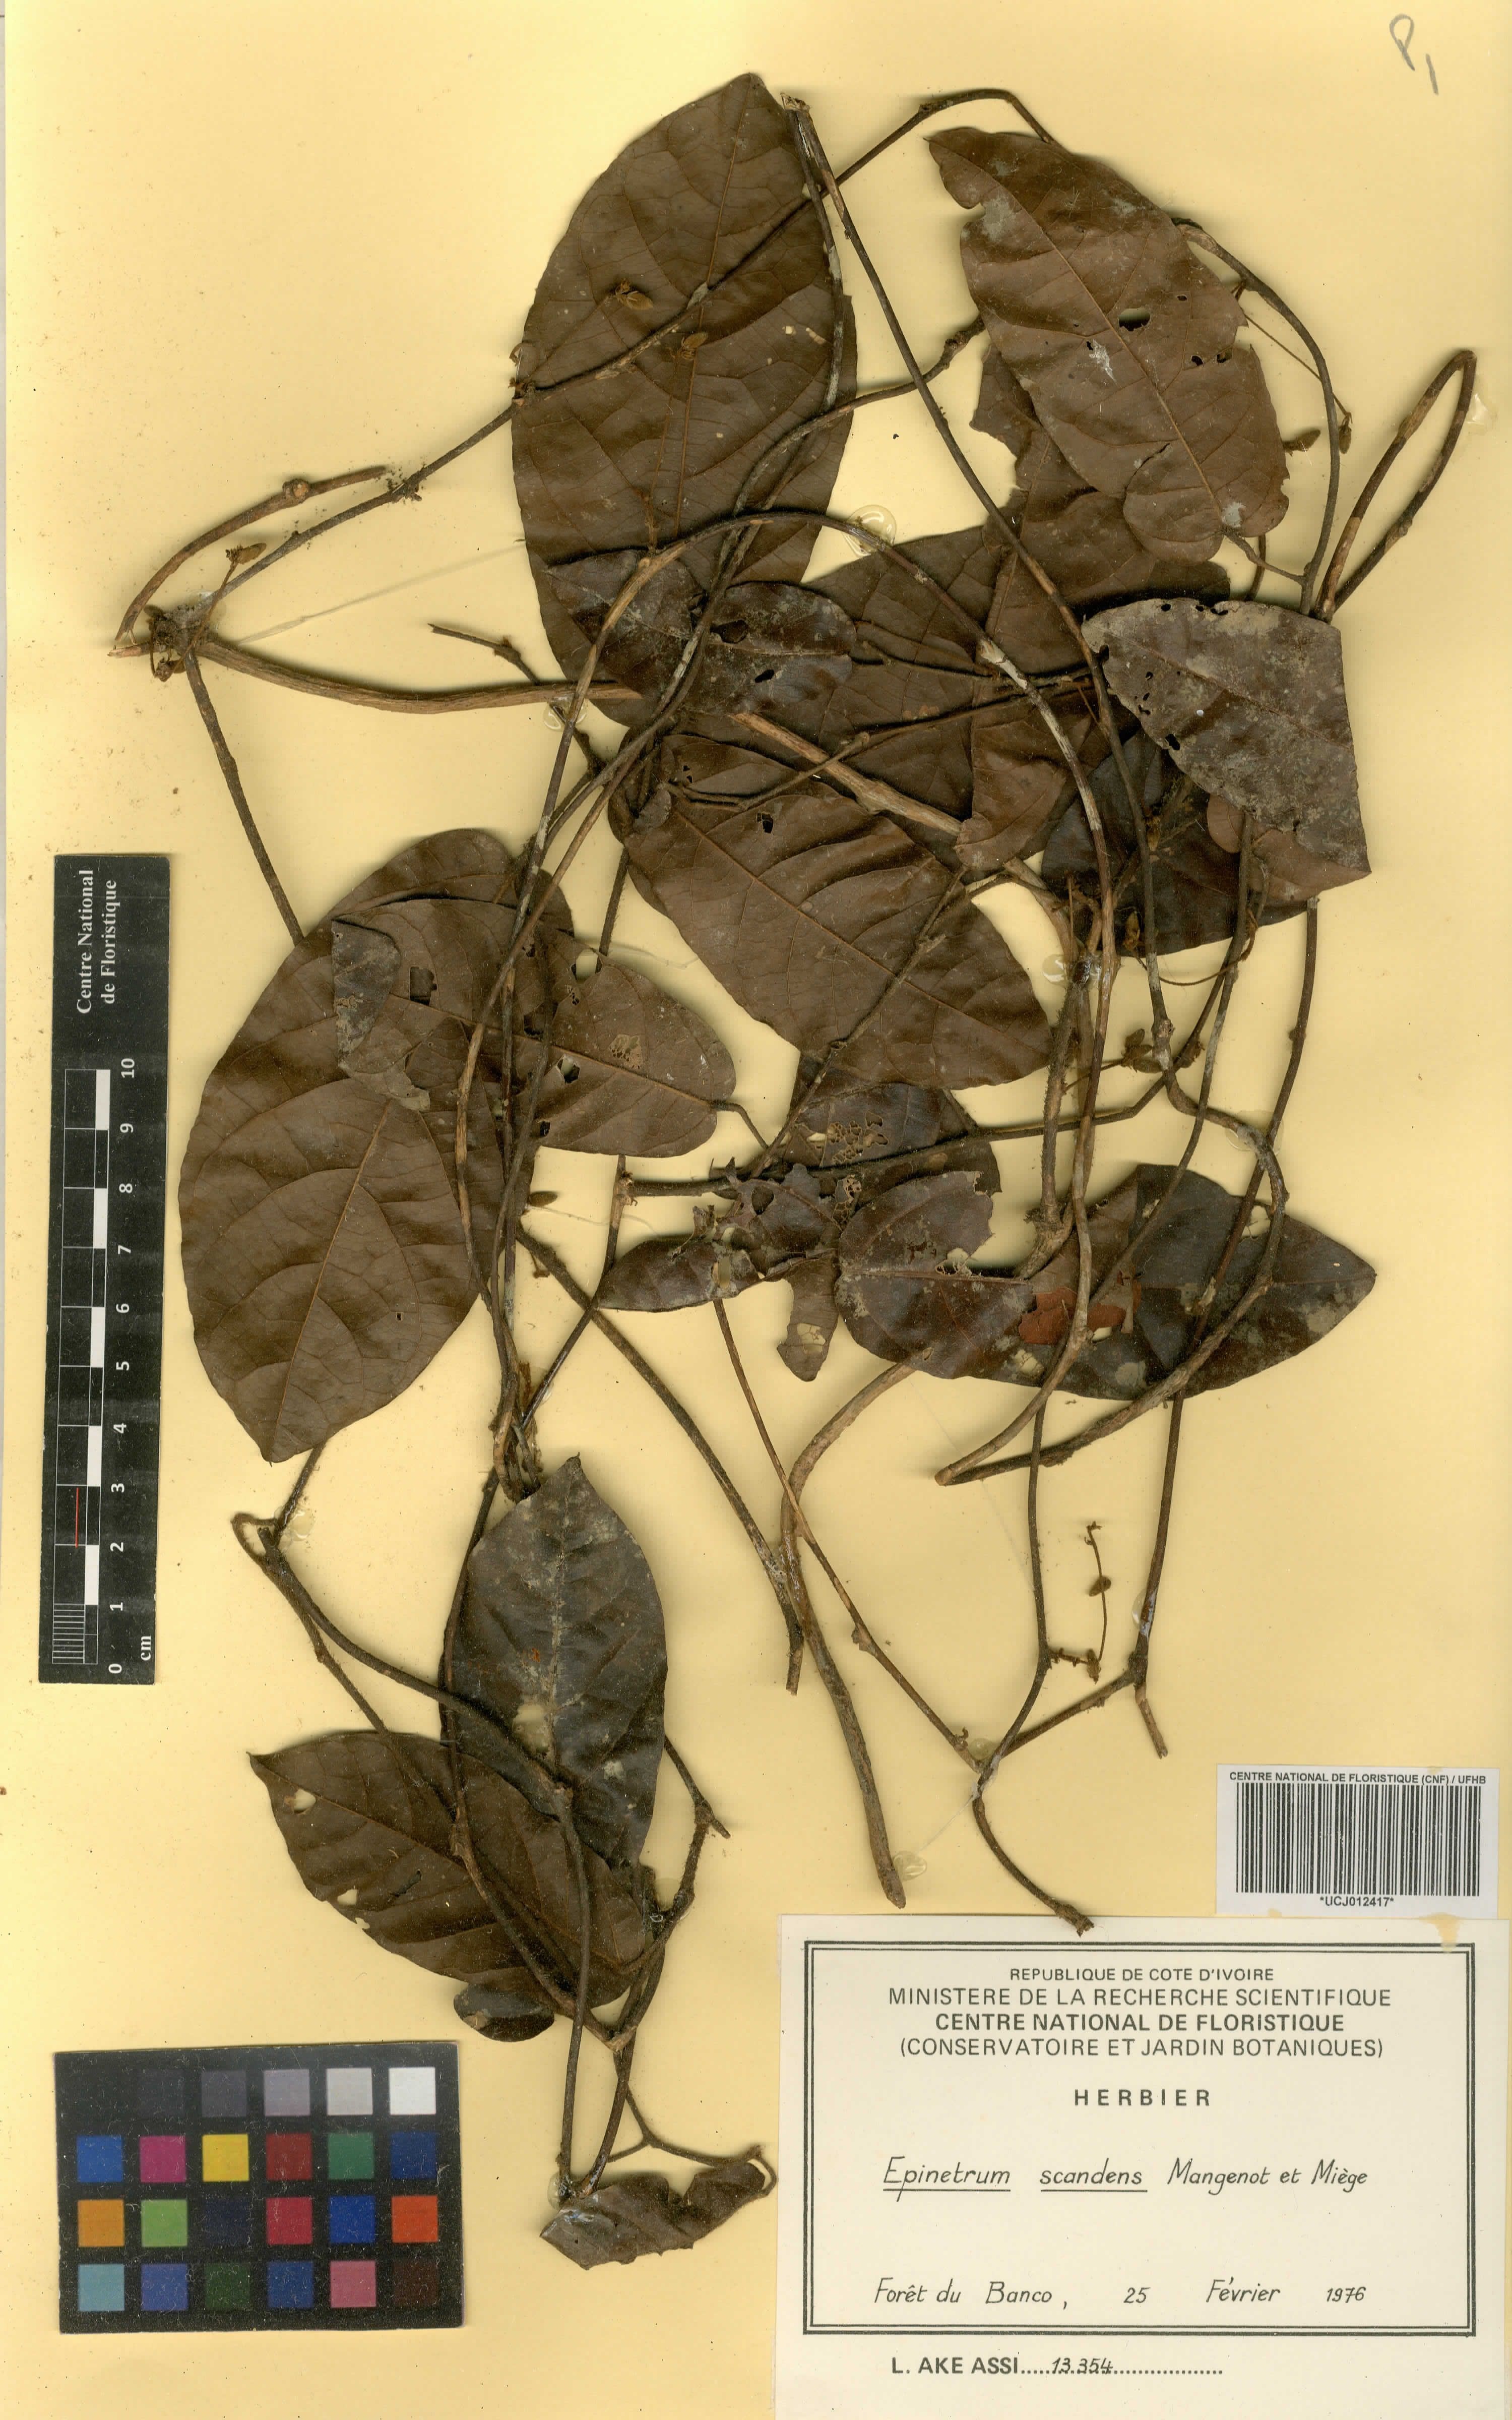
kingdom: Plantae
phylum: Tracheophyta
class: Magnoliopsida
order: Ranunculales
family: Menispermaceae
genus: Albertisia
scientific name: Albertisia scandens
